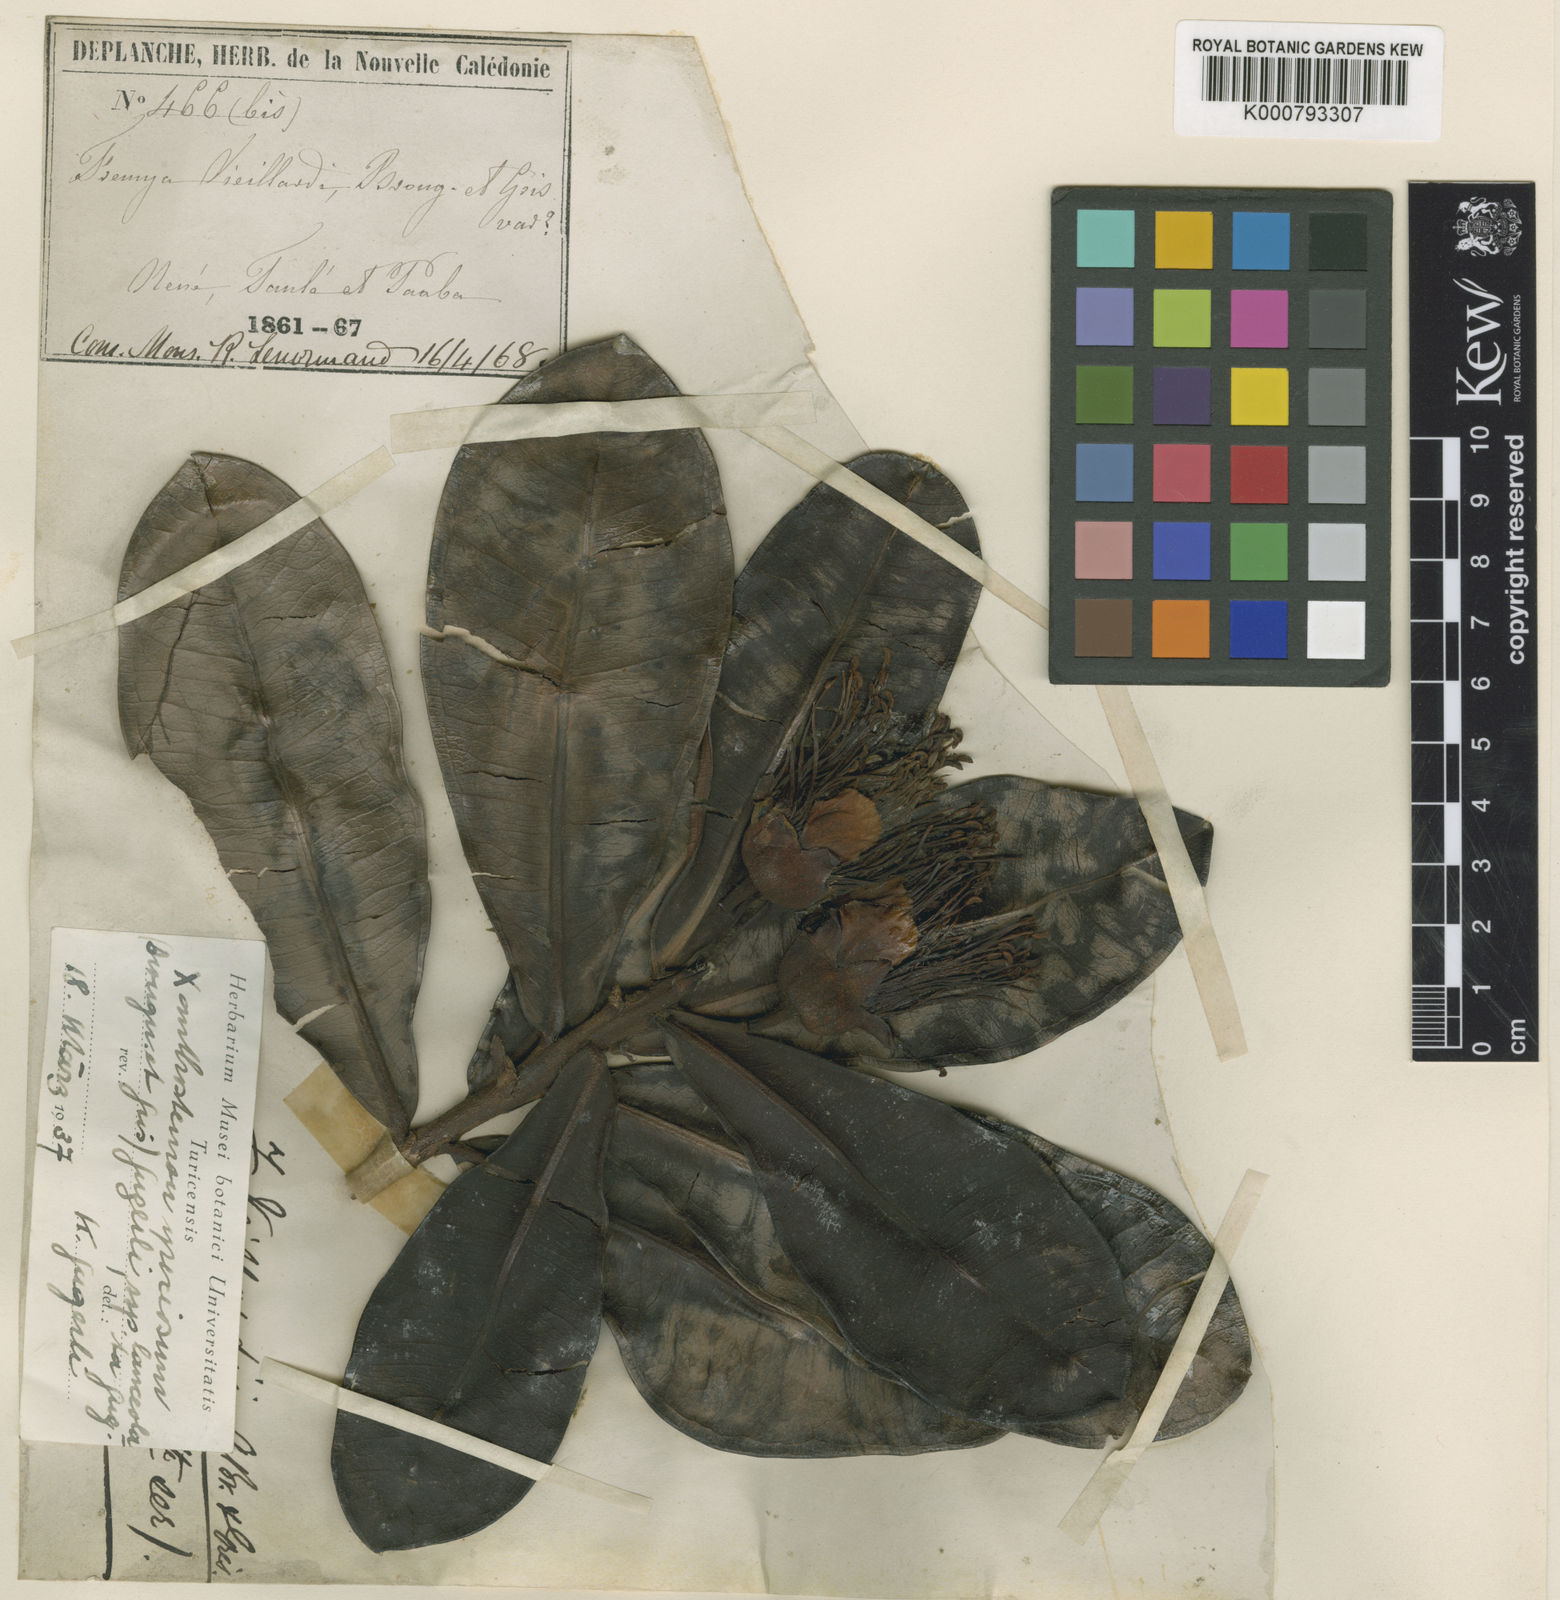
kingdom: Plantae
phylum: Tracheophyta
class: Magnoliopsida
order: Myrtales
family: Myrtaceae
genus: Xanthostemon
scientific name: Xanthostemon speciosus
